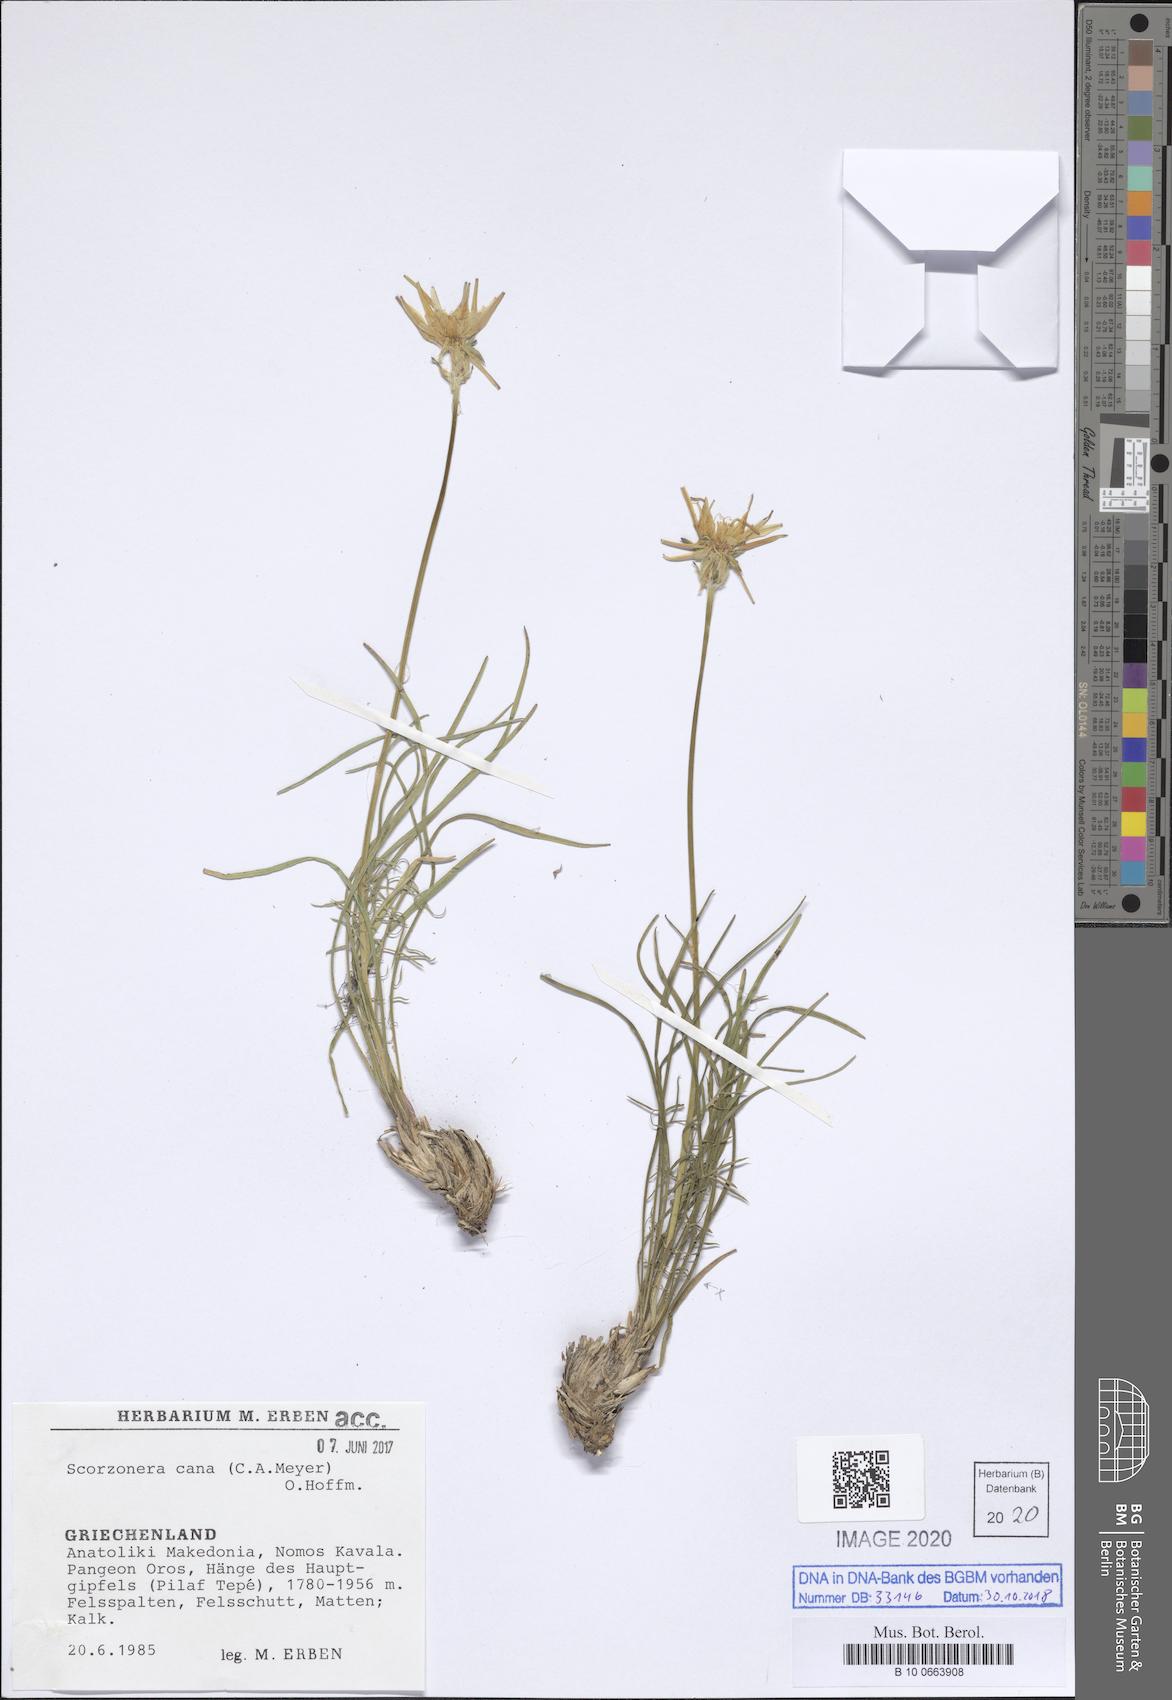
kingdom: Plantae
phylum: Tracheophyta
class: Magnoliopsida
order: Asterales
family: Asteraceae
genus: Scorzonera
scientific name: Scorzonera cana
